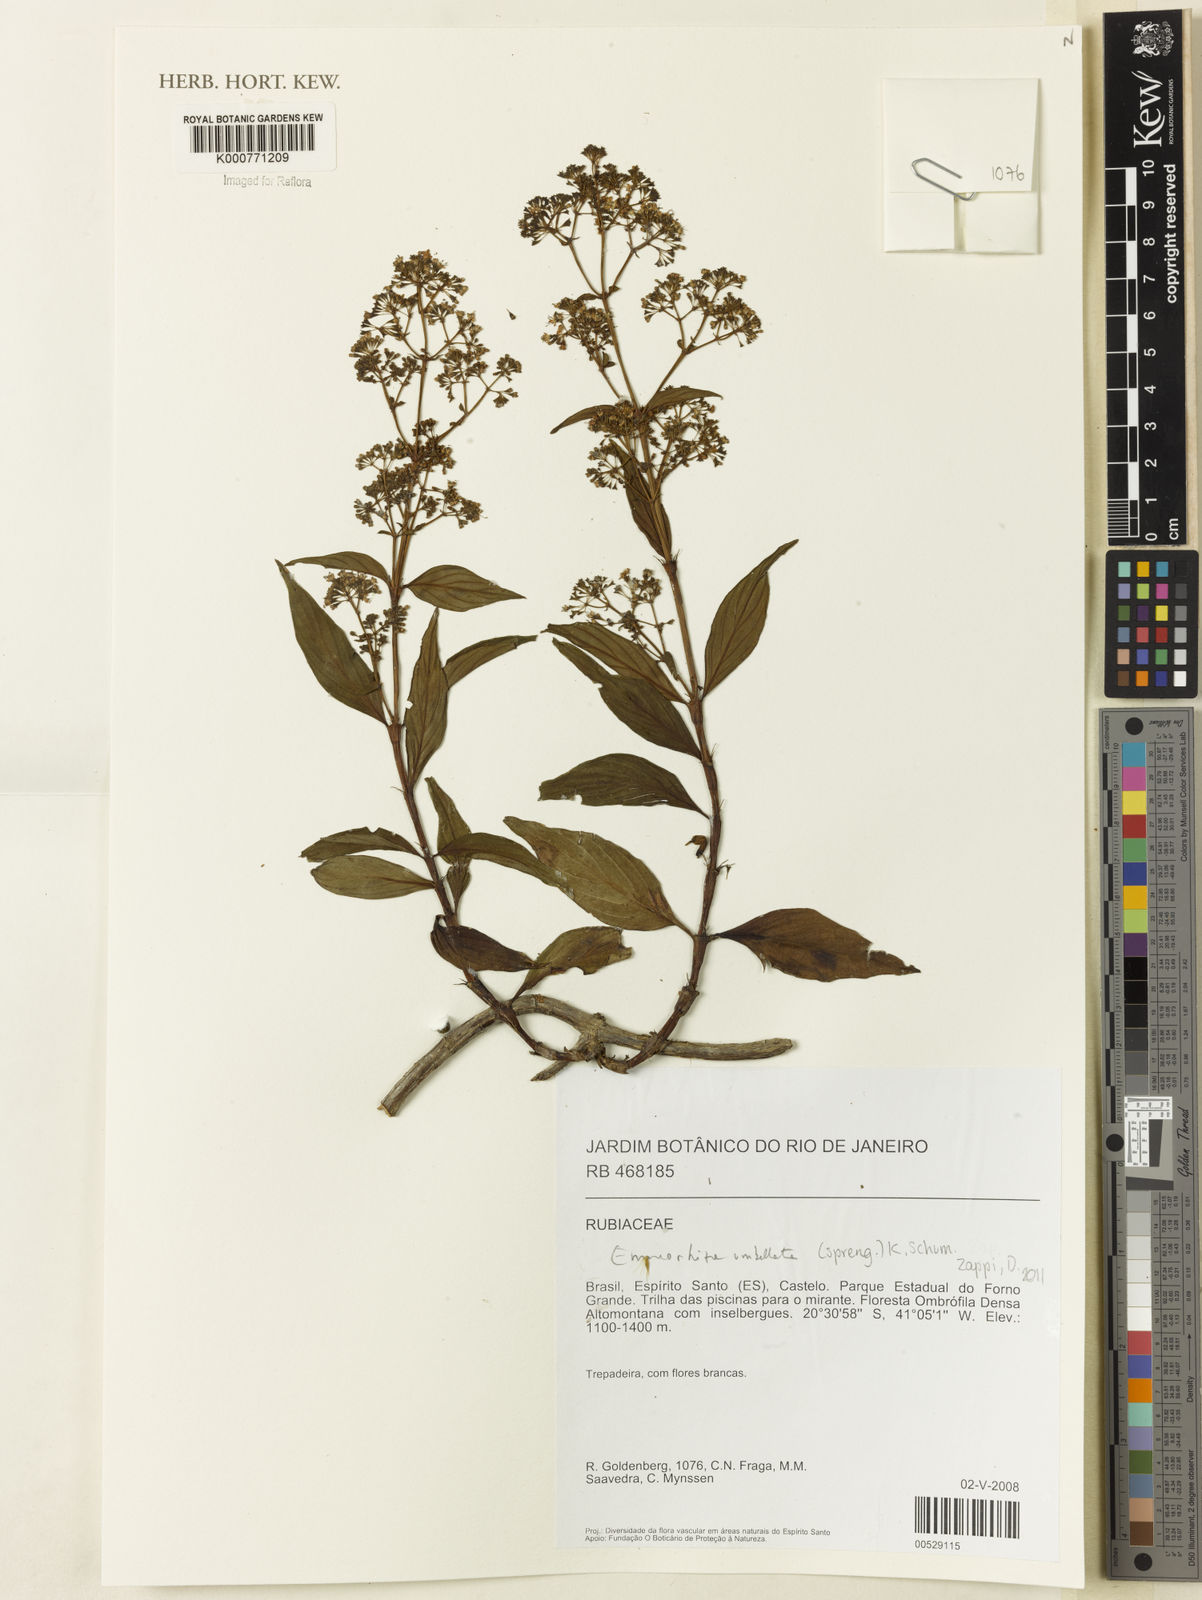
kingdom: Plantae
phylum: Tracheophyta
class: Magnoliopsida
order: Gentianales
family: Rubiaceae
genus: Emmeorhiza
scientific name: Emmeorhiza umbellata
